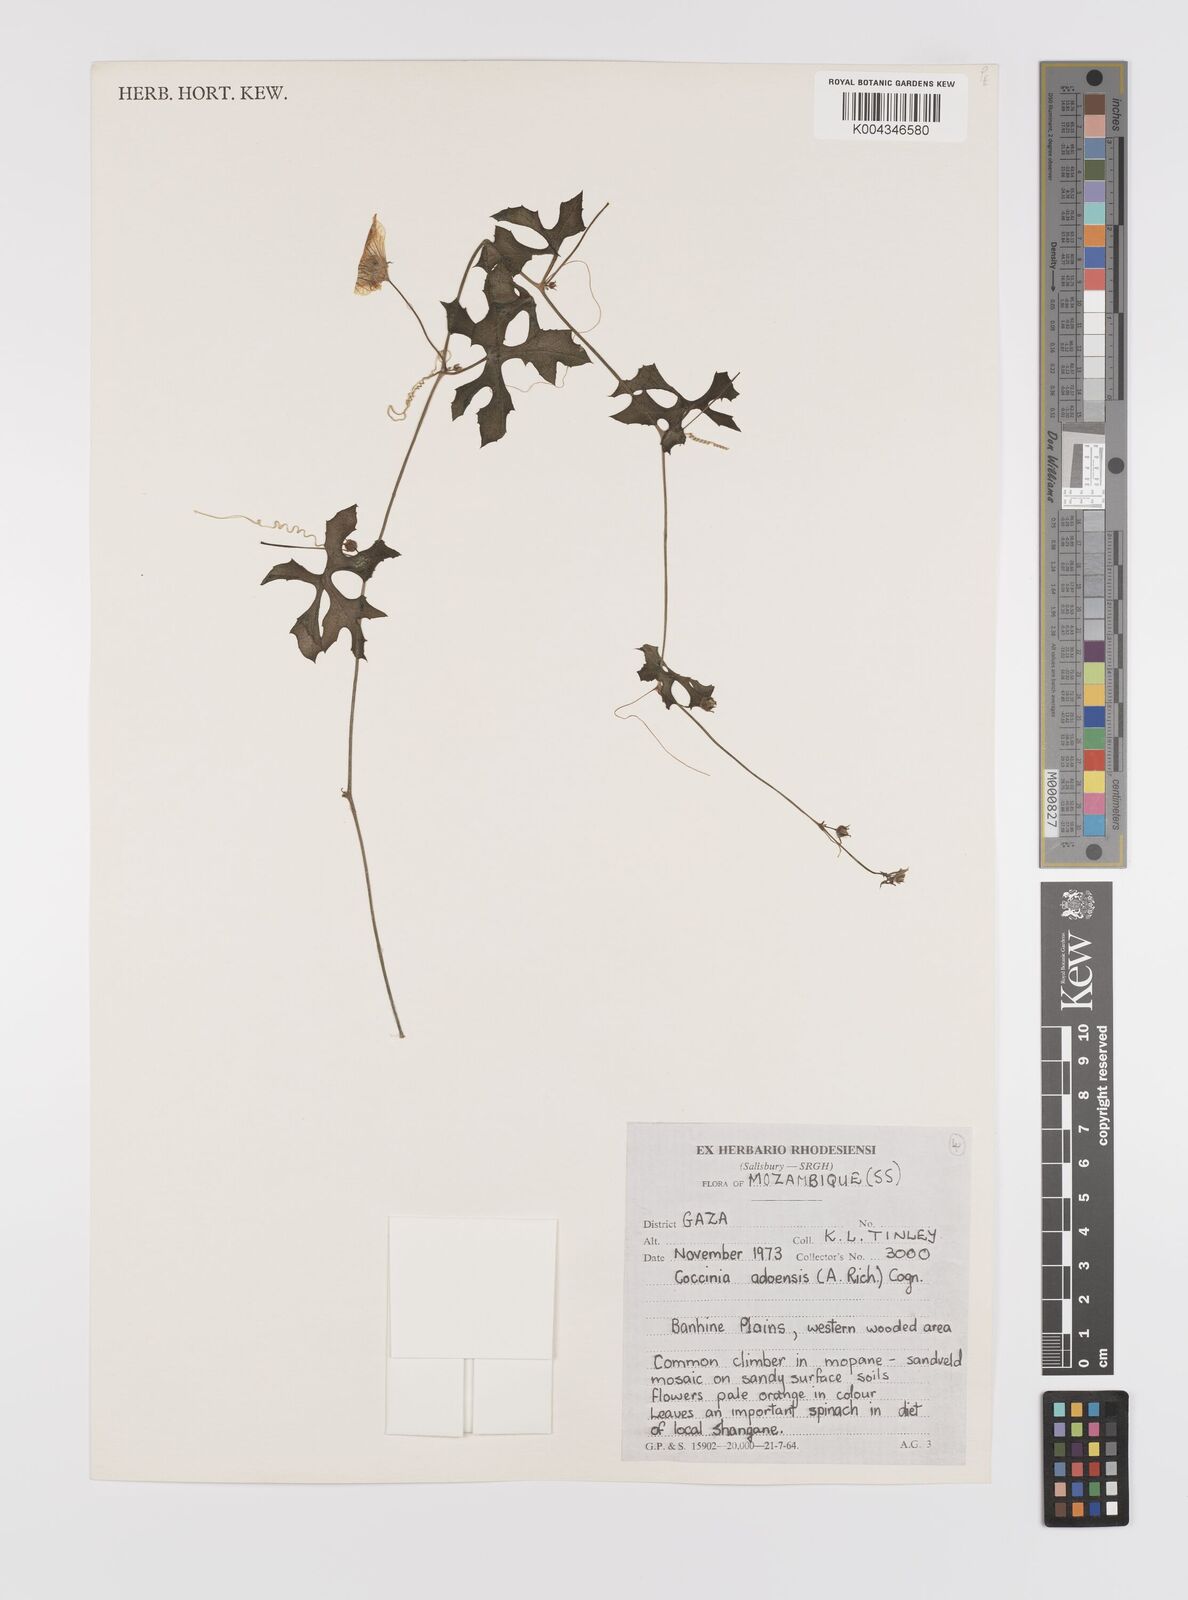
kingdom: Plantae
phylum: Tracheophyta
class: Magnoliopsida
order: Cucurbitales
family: Cucurbitaceae
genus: Coccinia
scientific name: Coccinia rehmannii
